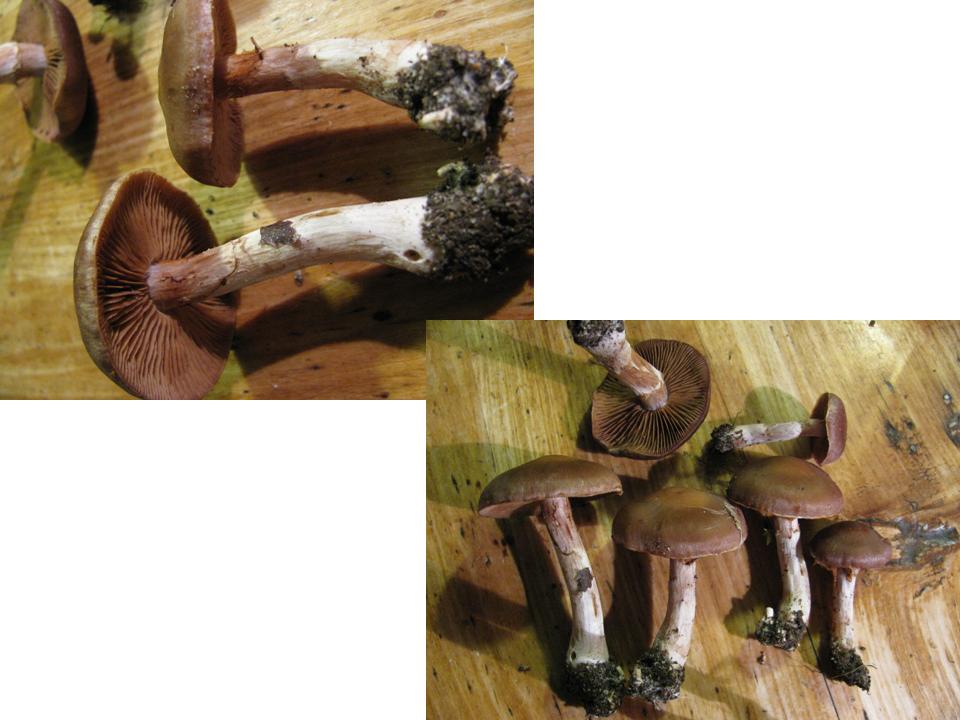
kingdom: Fungi
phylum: Basidiomycota
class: Agaricomycetes
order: Agaricales
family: Cortinariaceae
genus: Cortinarius
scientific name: Cortinarius saturninus
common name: brunviolet slørhat
